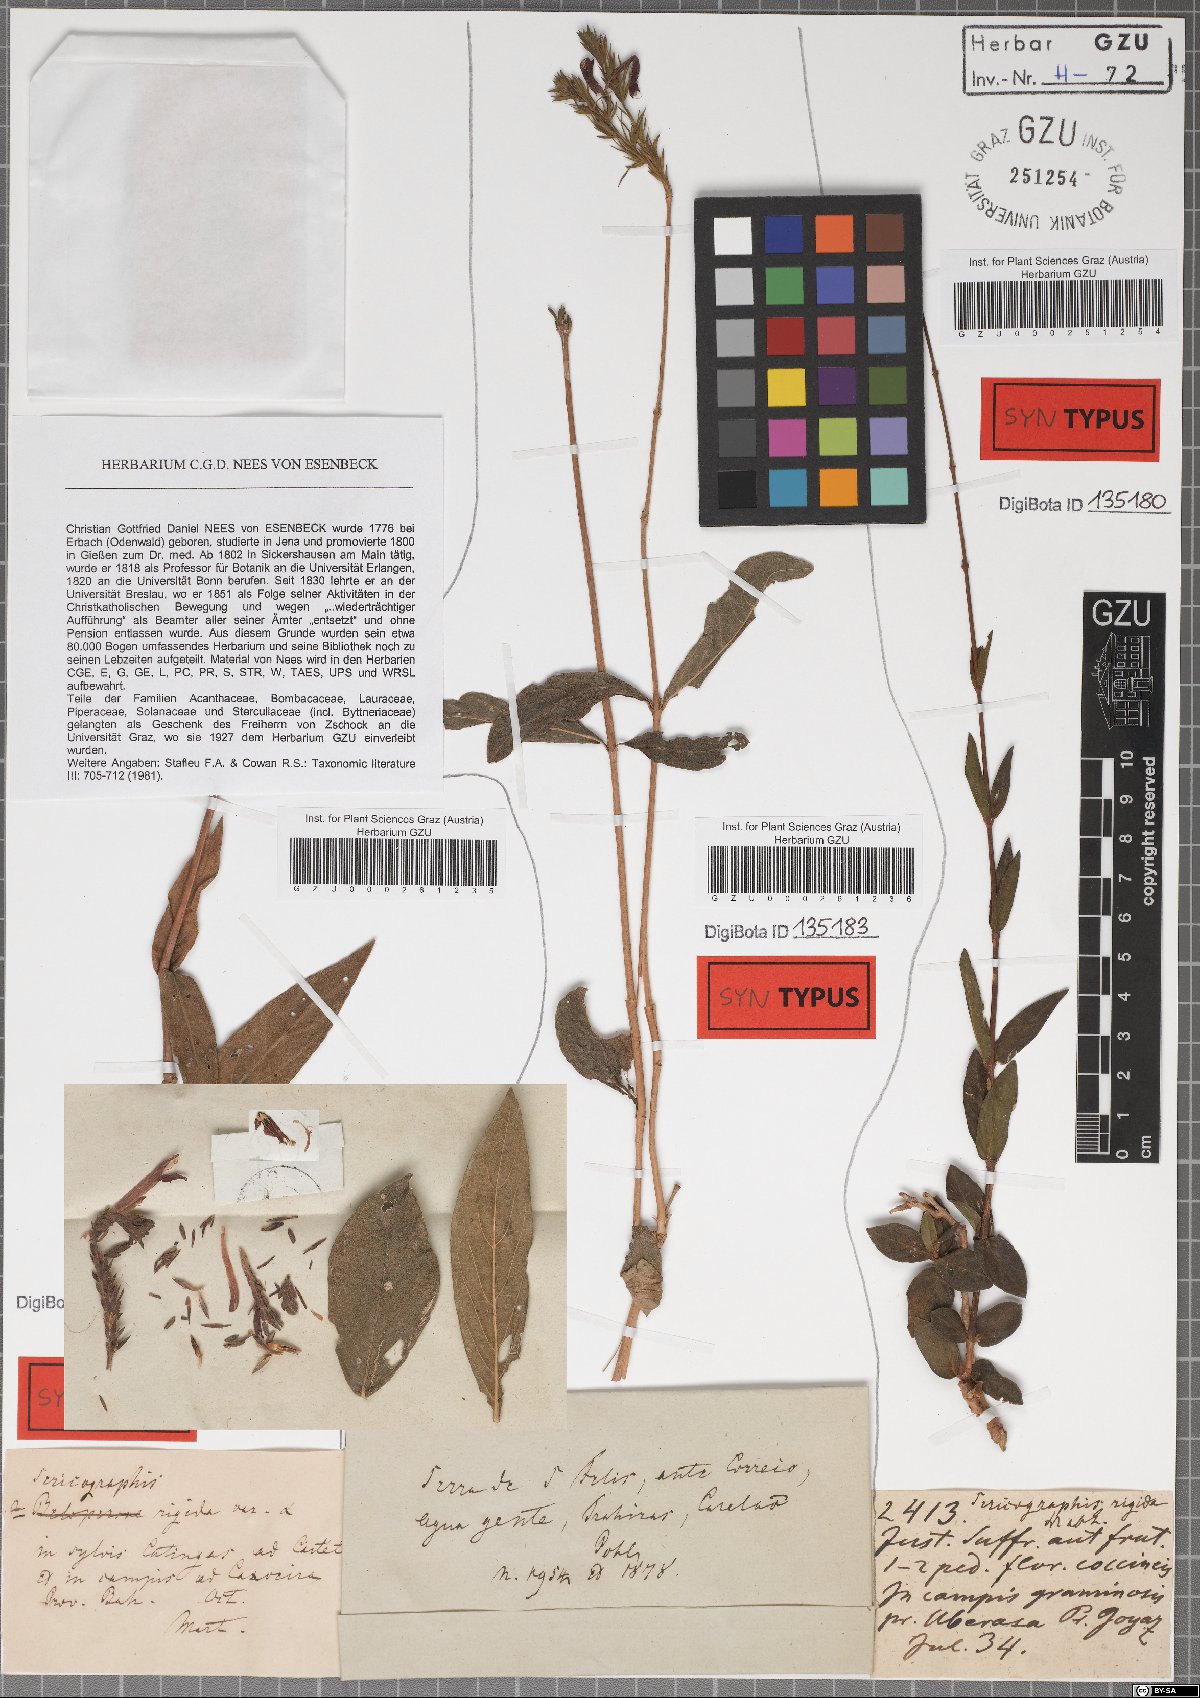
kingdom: Plantae
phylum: Tracheophyta
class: Magnoliopsida
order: Lamiales
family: Acanthaceae
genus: Dianthera
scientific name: Dianthera rigida
